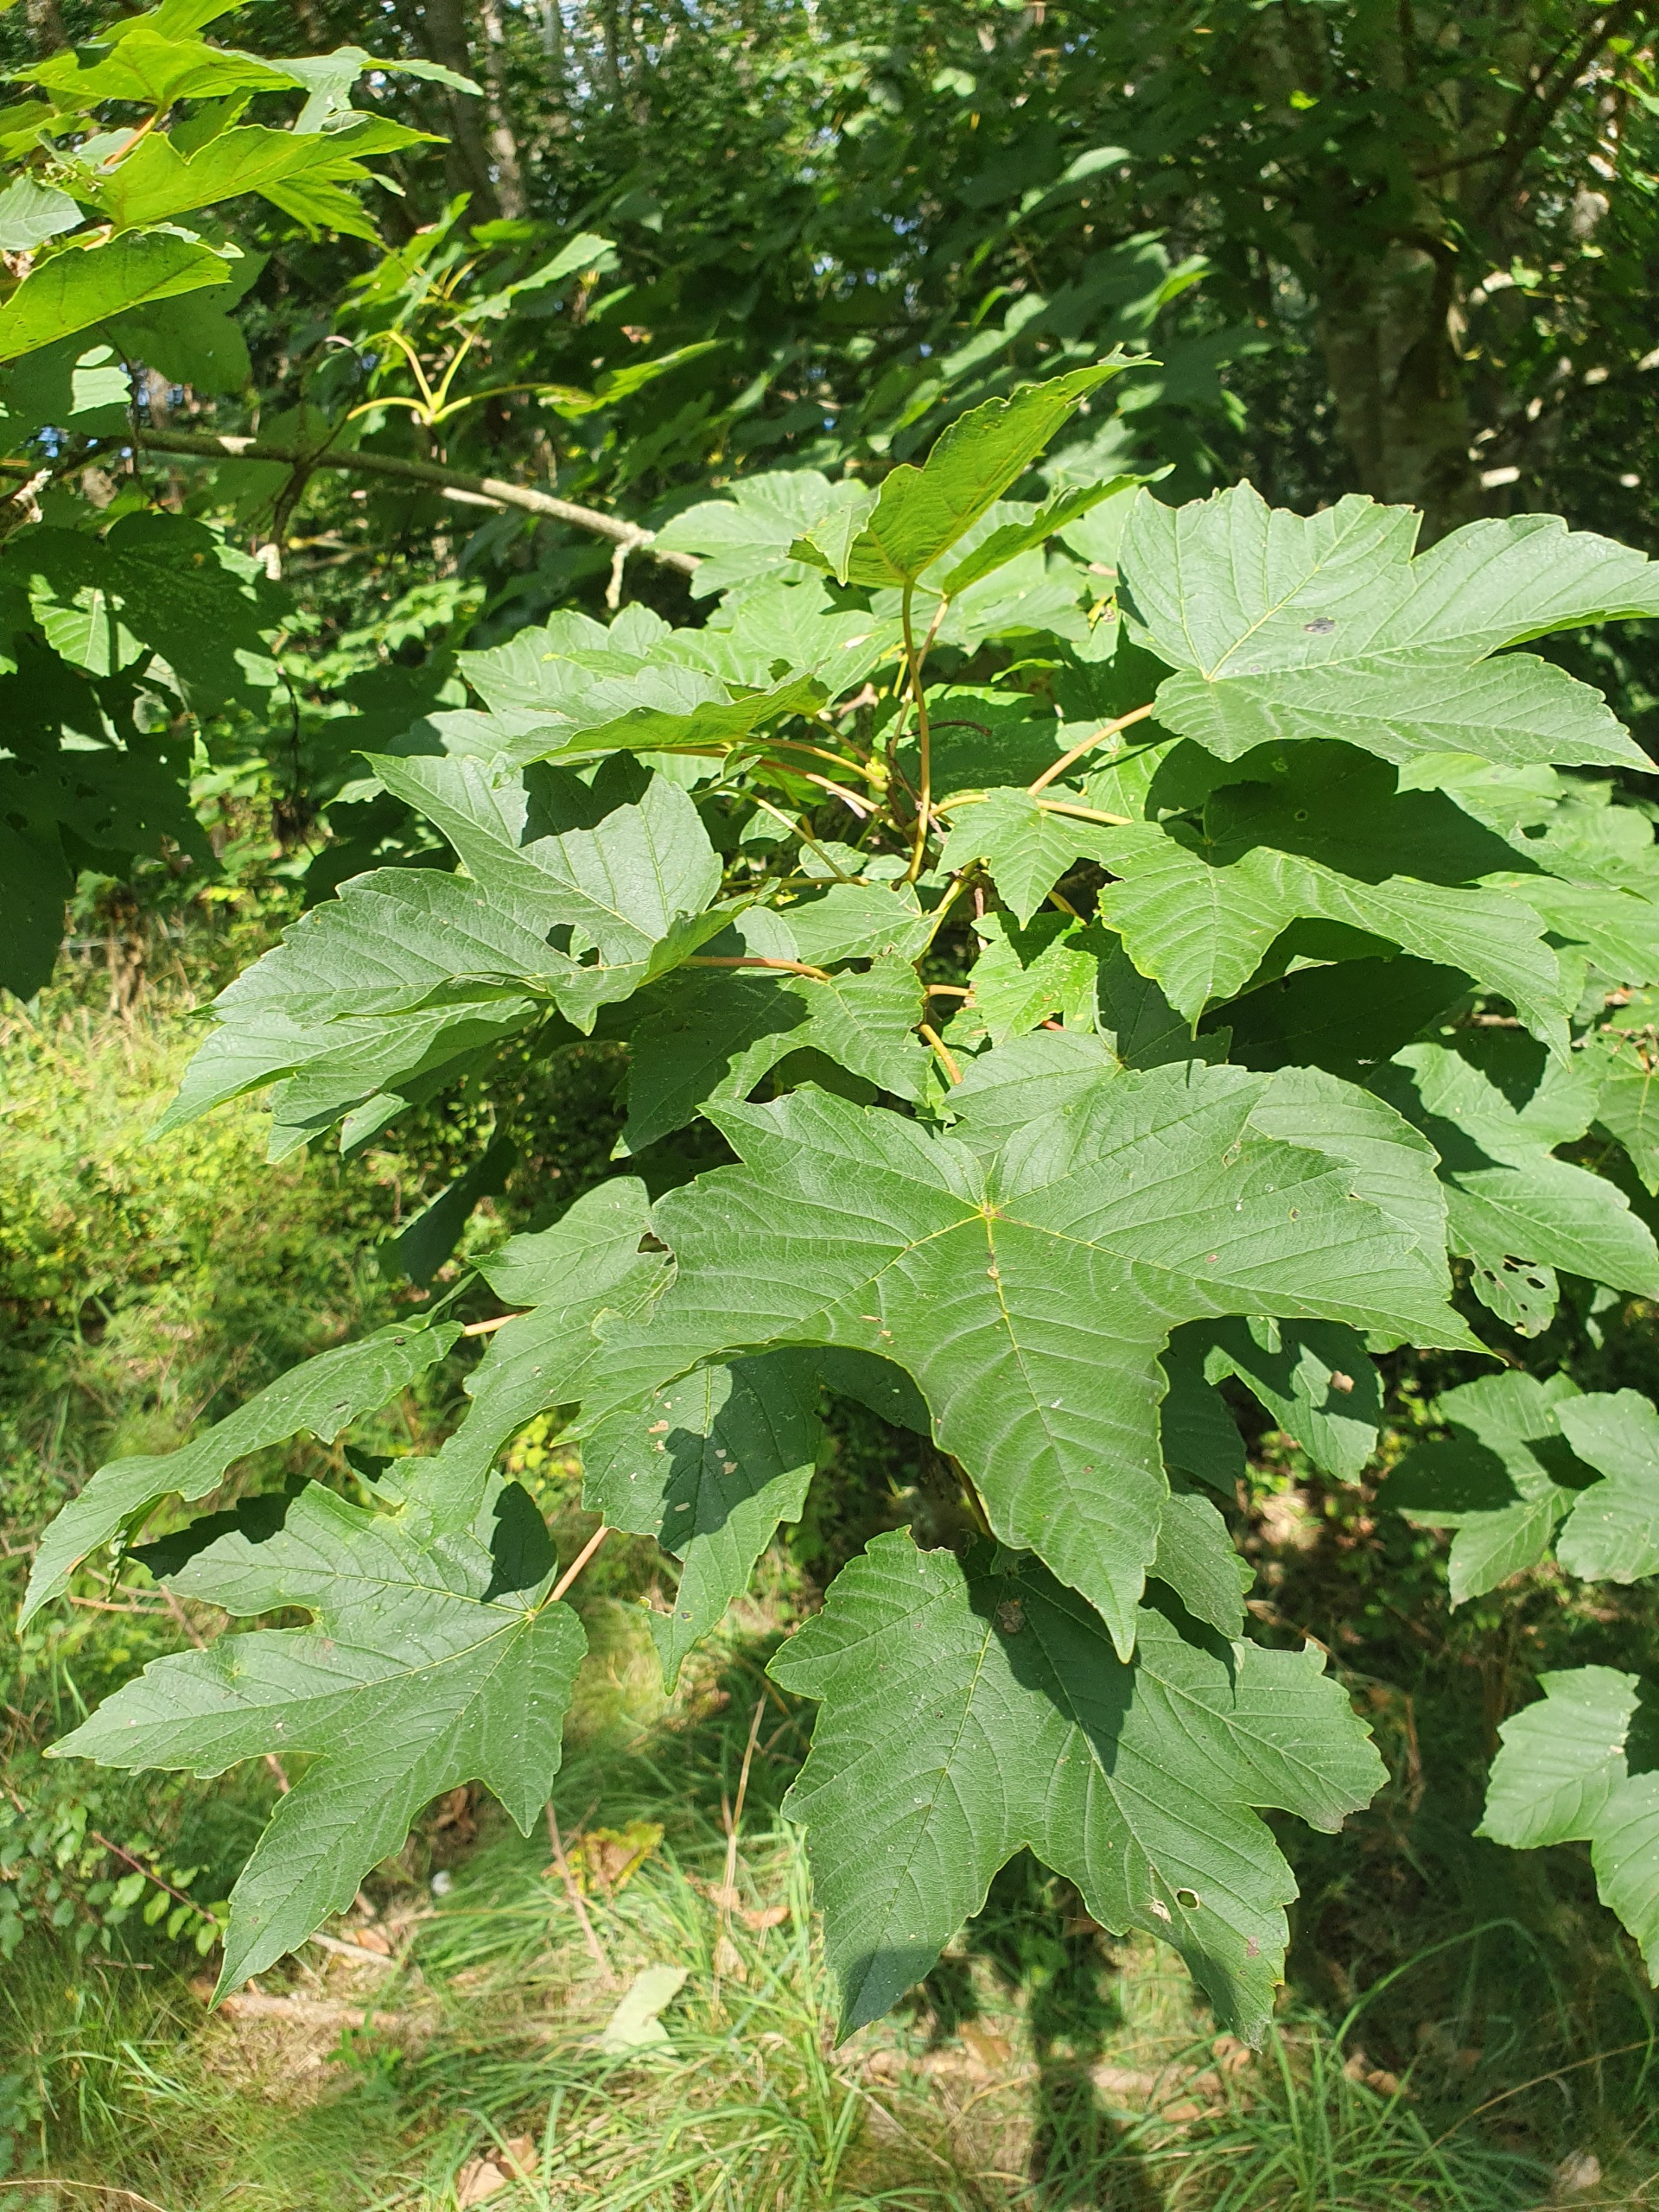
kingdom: Plantae
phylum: Tracheophyta
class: Magnoliopsida
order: Sapindales
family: Sapindaceae
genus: Acer
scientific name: Acer pseudoplatanus
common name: Ahorn
